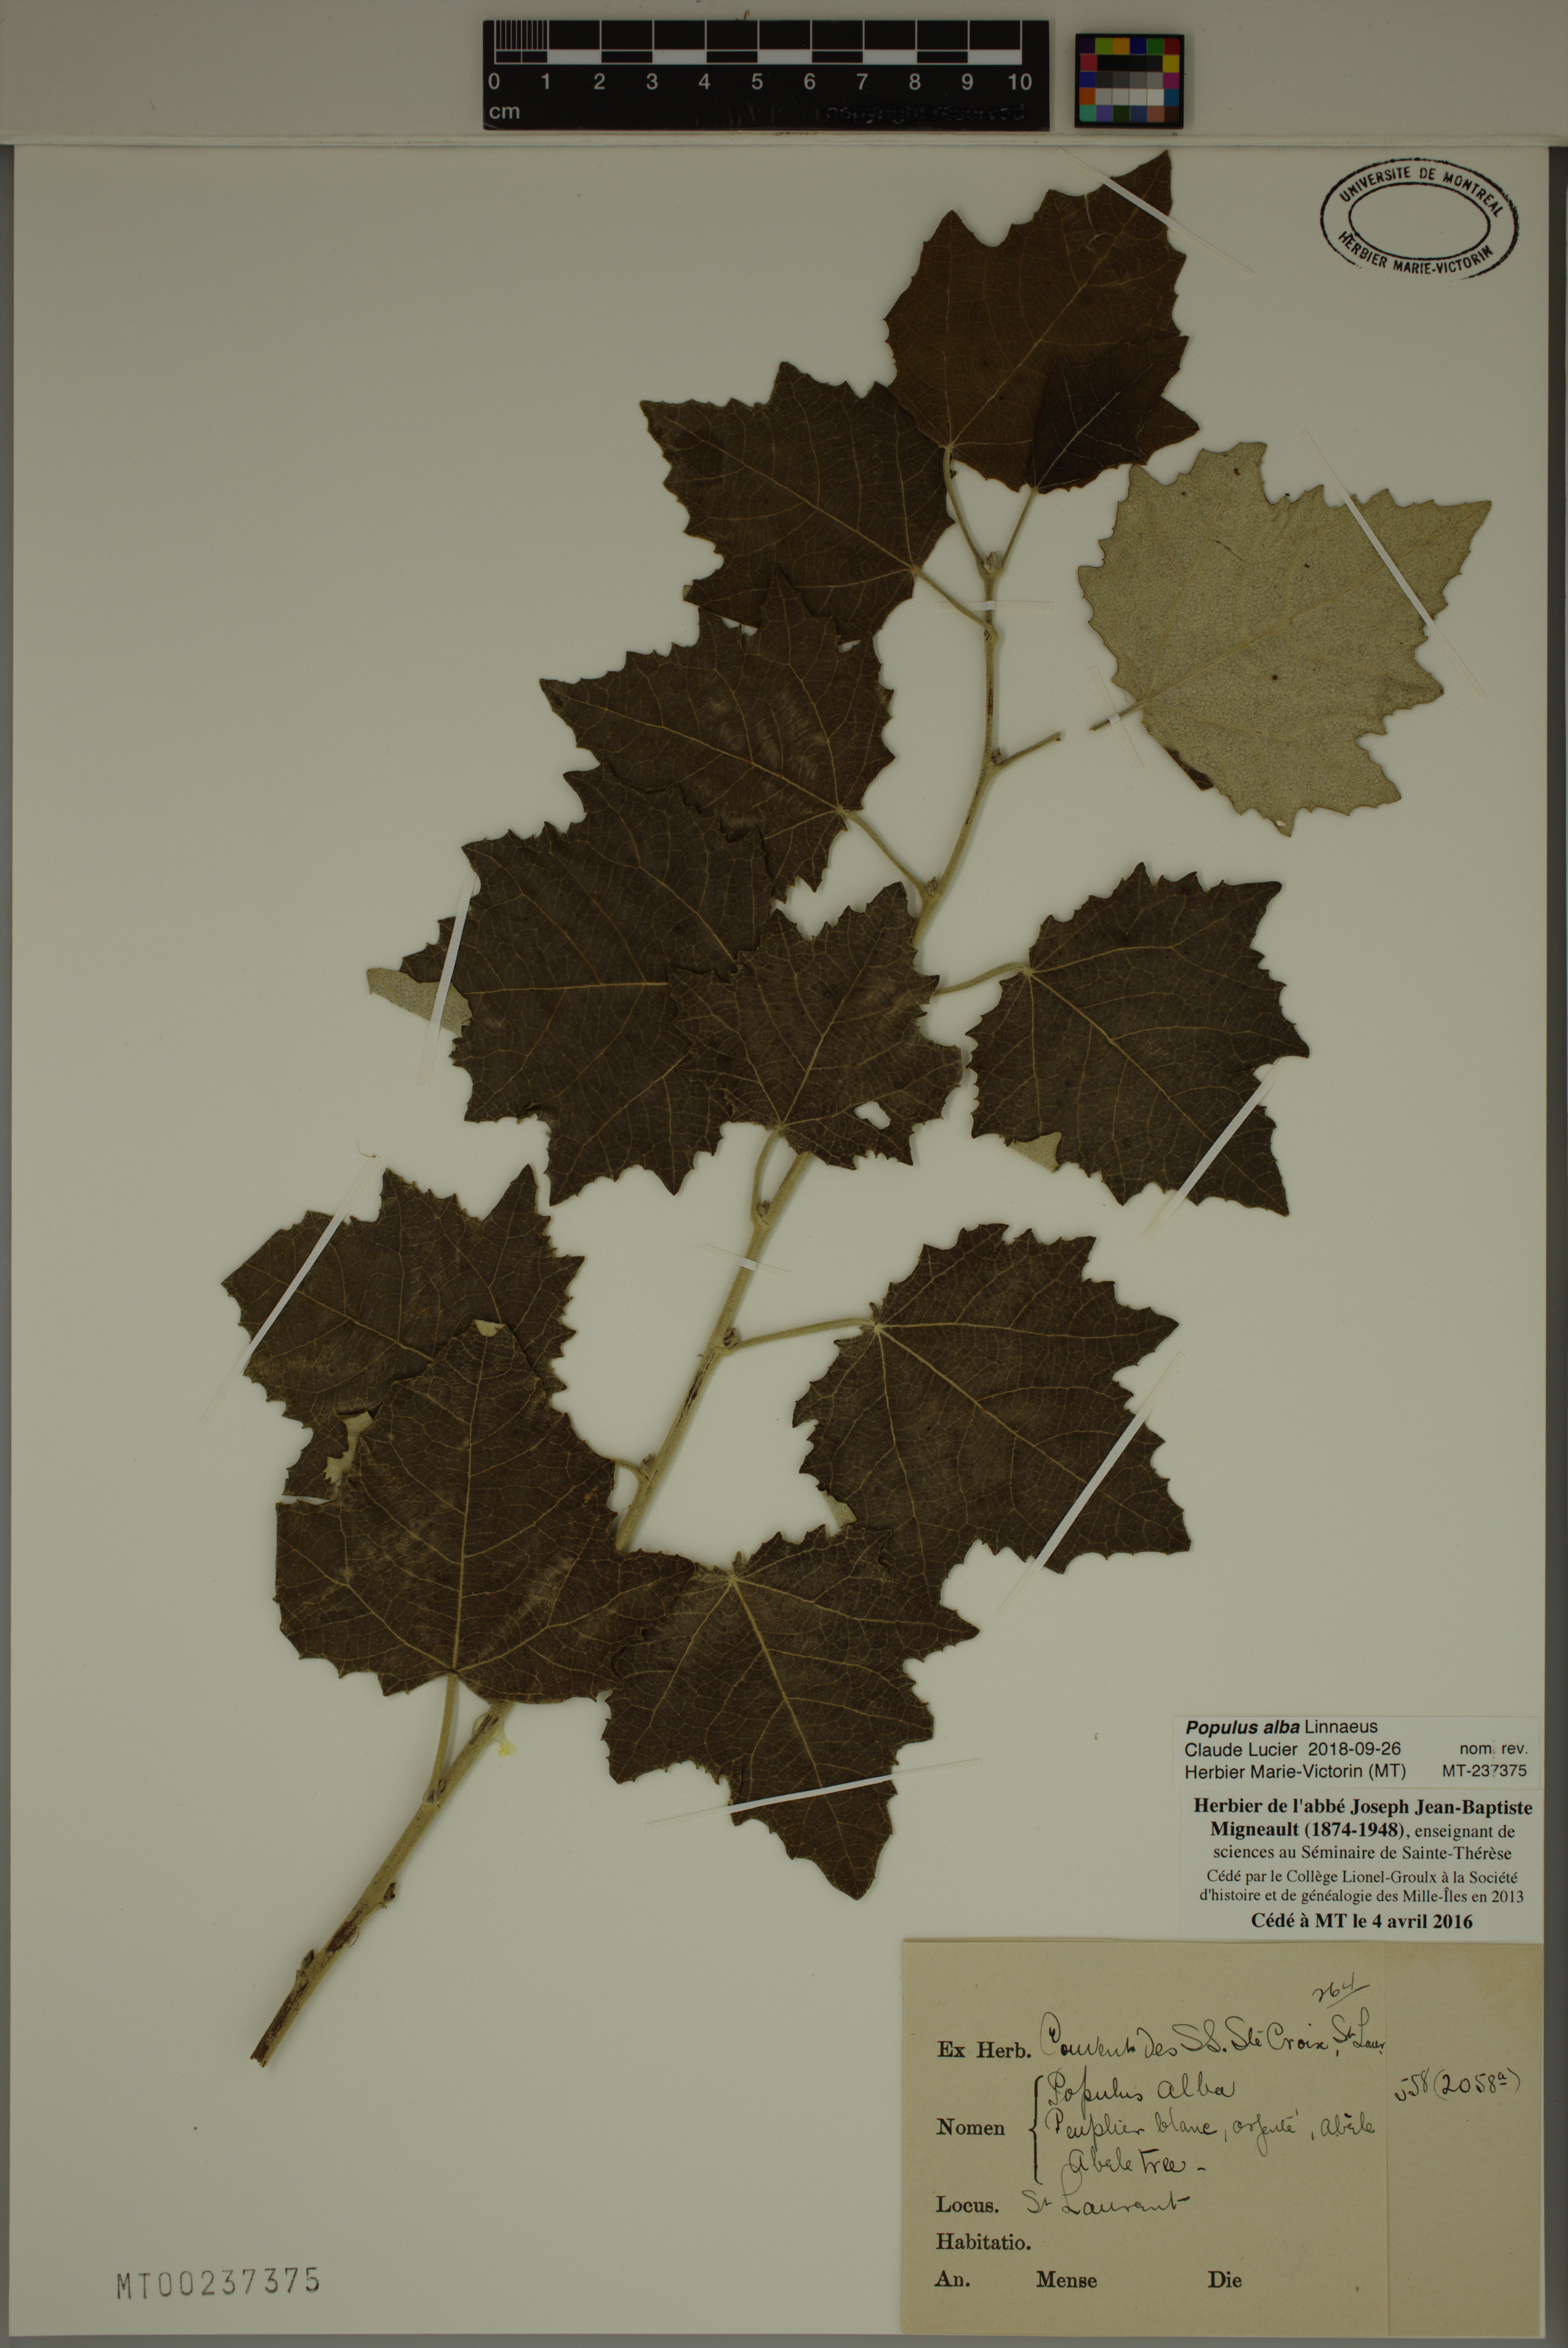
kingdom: Plantae
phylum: Tracheophyta
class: Magnoliopsida
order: Malpighiales
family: Salicaceae
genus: Populus
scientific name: Populus alba
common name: White poplar
